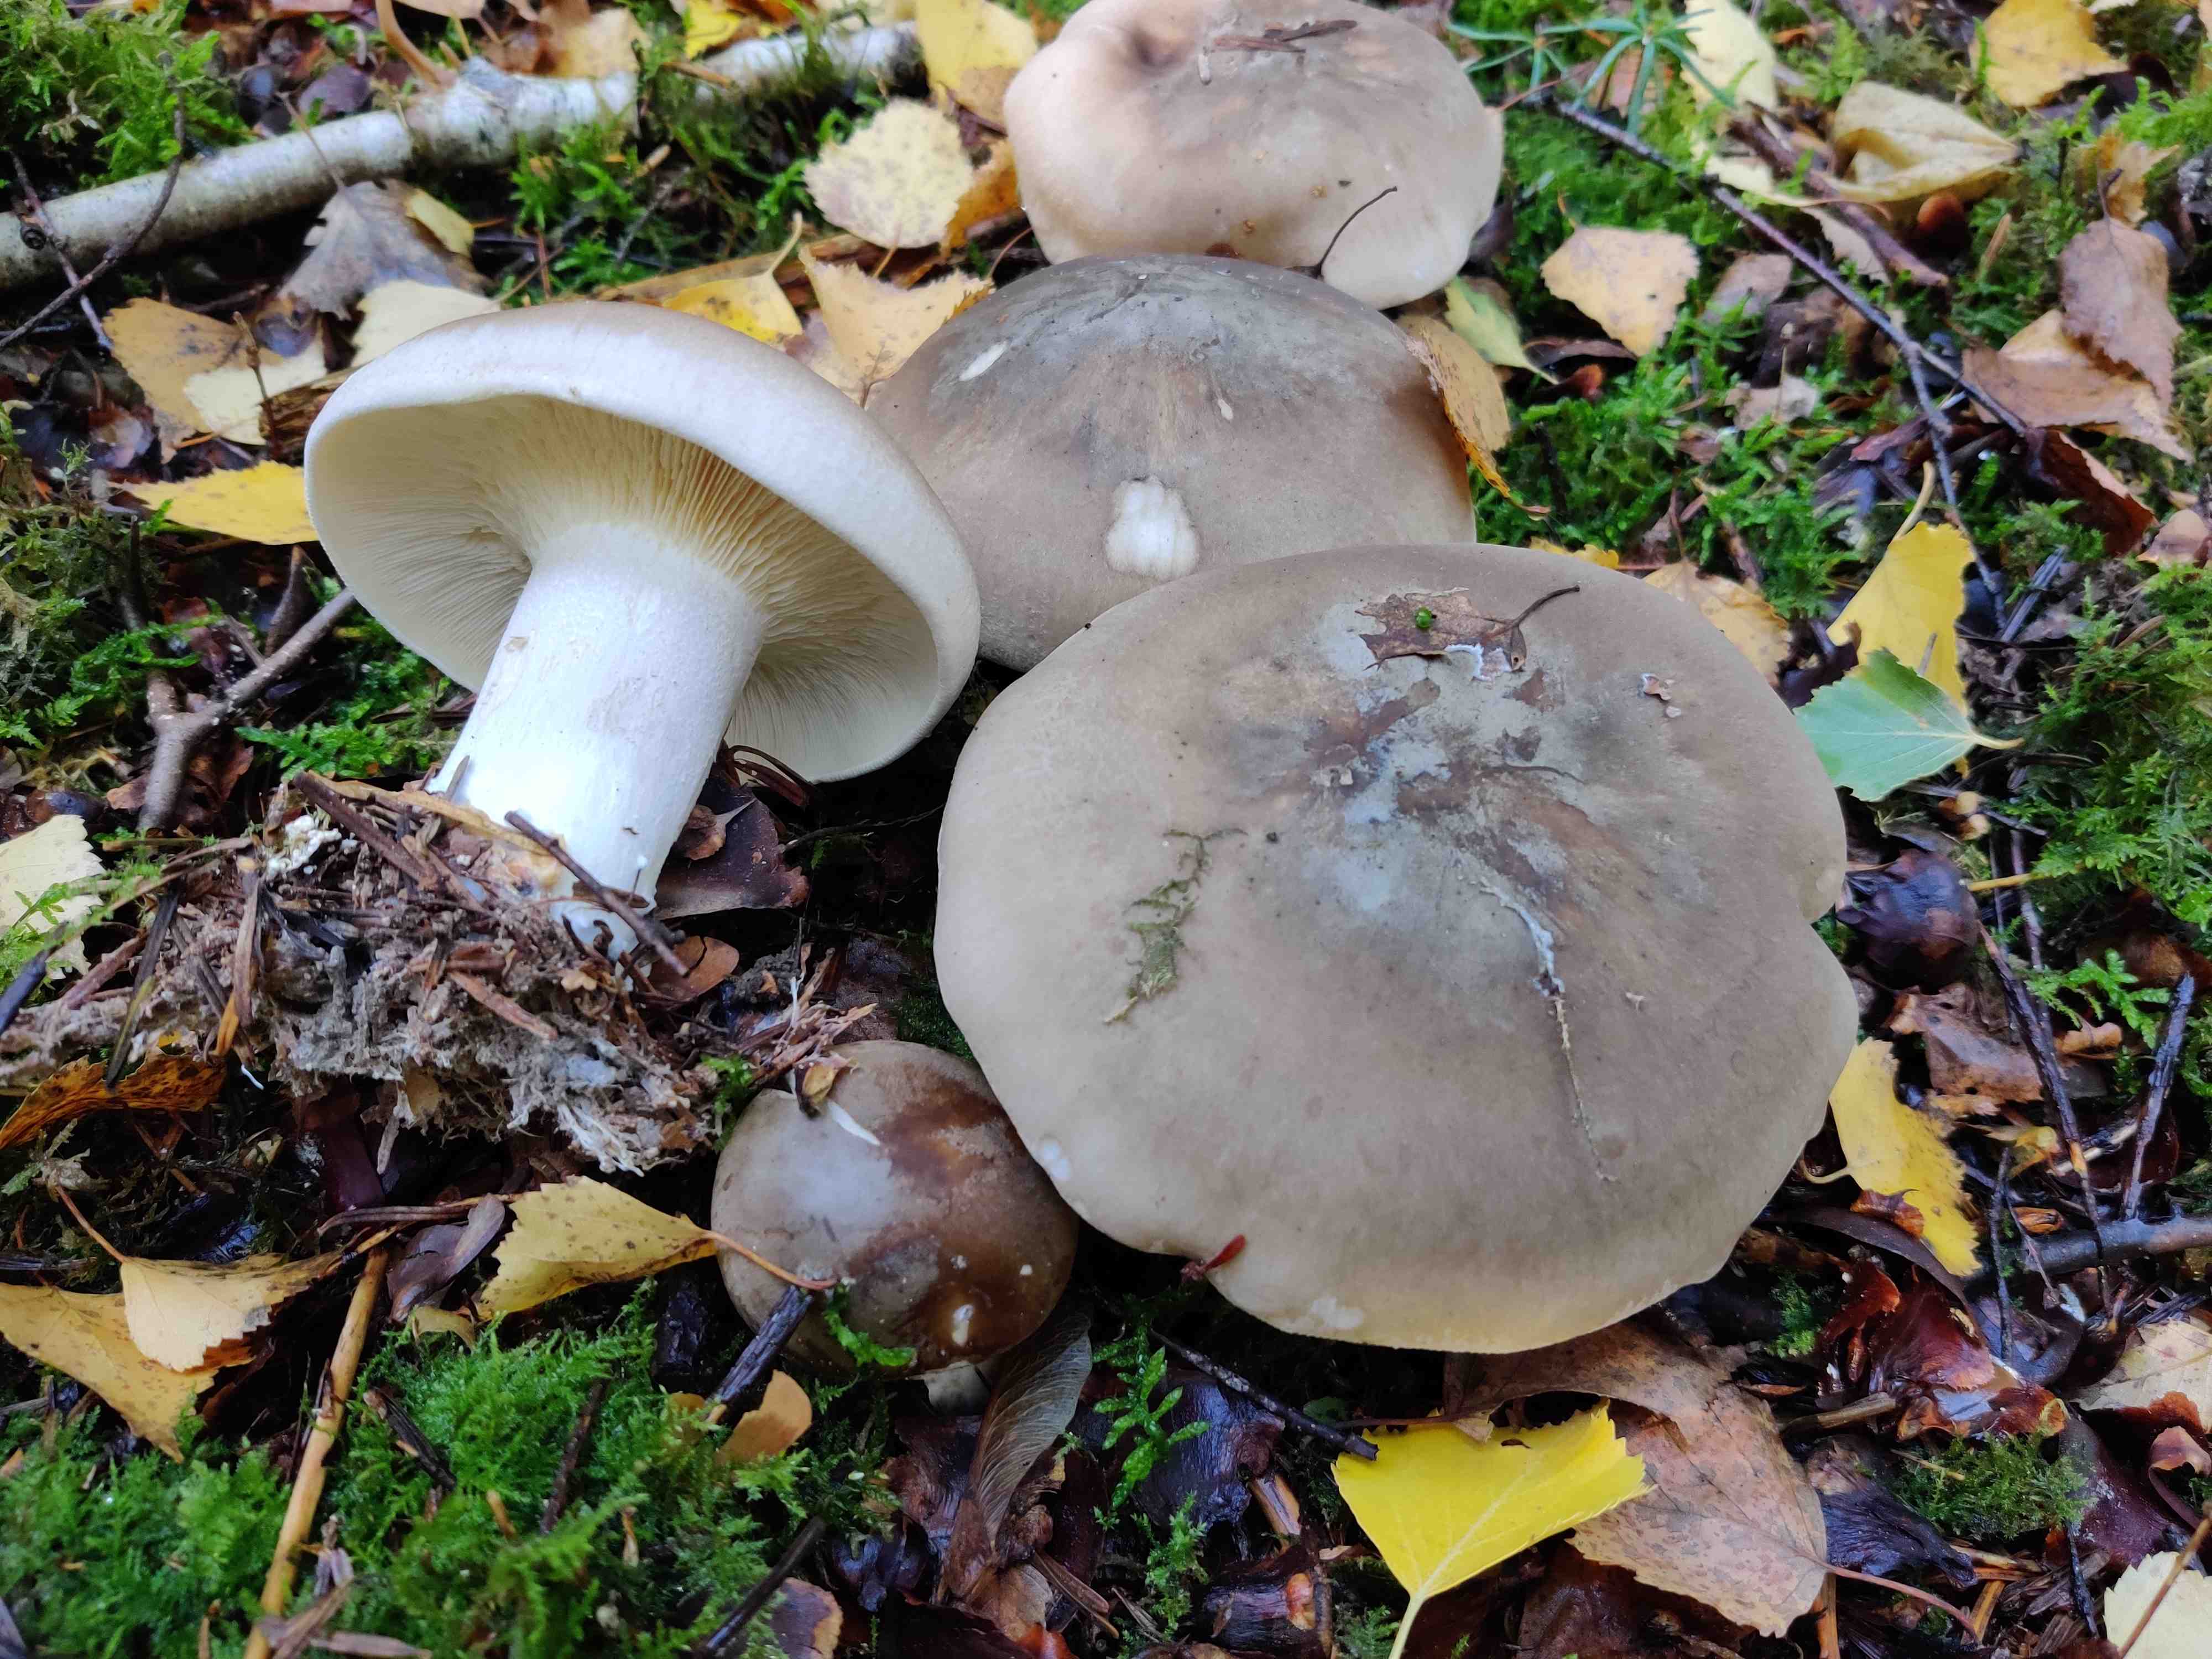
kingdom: Fungi
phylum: Basidiomycota
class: Agaricomycetes
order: Agaricales
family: Tricholomataceae
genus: Clitocybe
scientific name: Clitocybe nebularis
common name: tåge-tragthat
